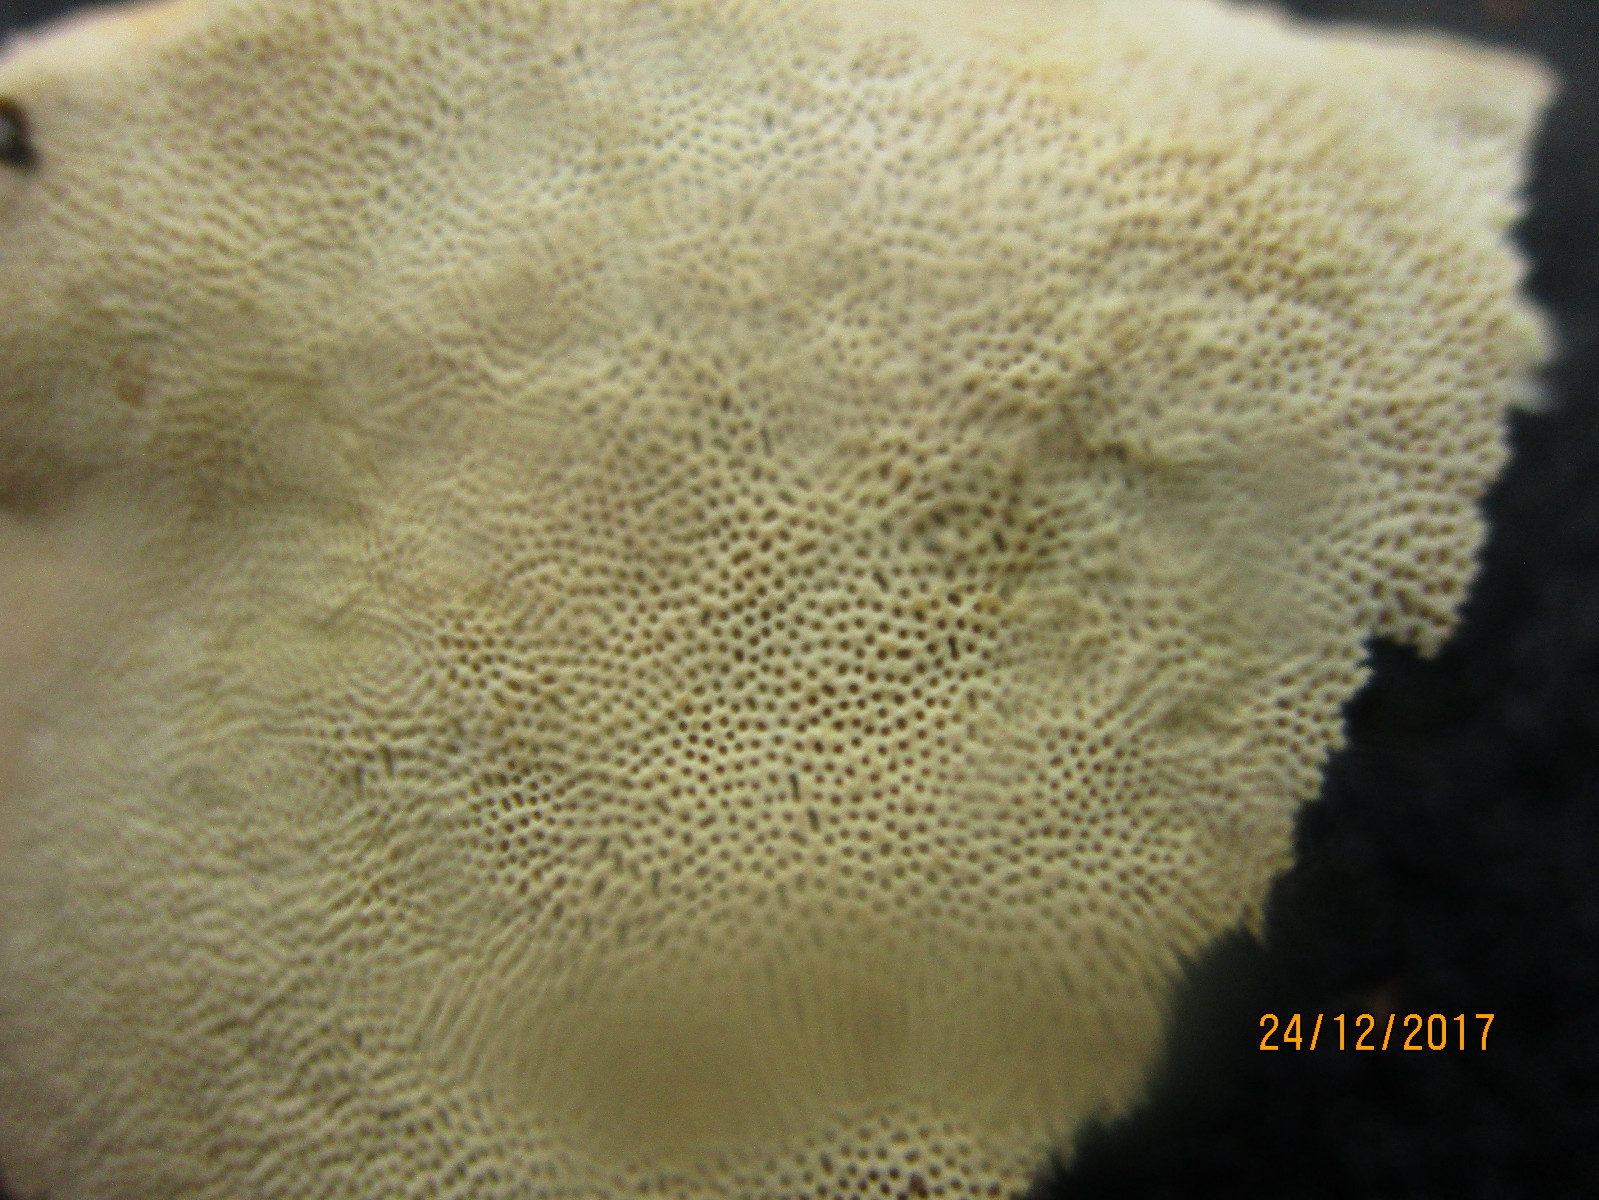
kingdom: Fungi
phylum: Basidiomycota
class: Agaricomycetes
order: Polyporales
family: Fomitopsidaceae
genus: Fomitopsis
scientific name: Fomitopsis pinicola
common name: randbæltet hovporesvamp
